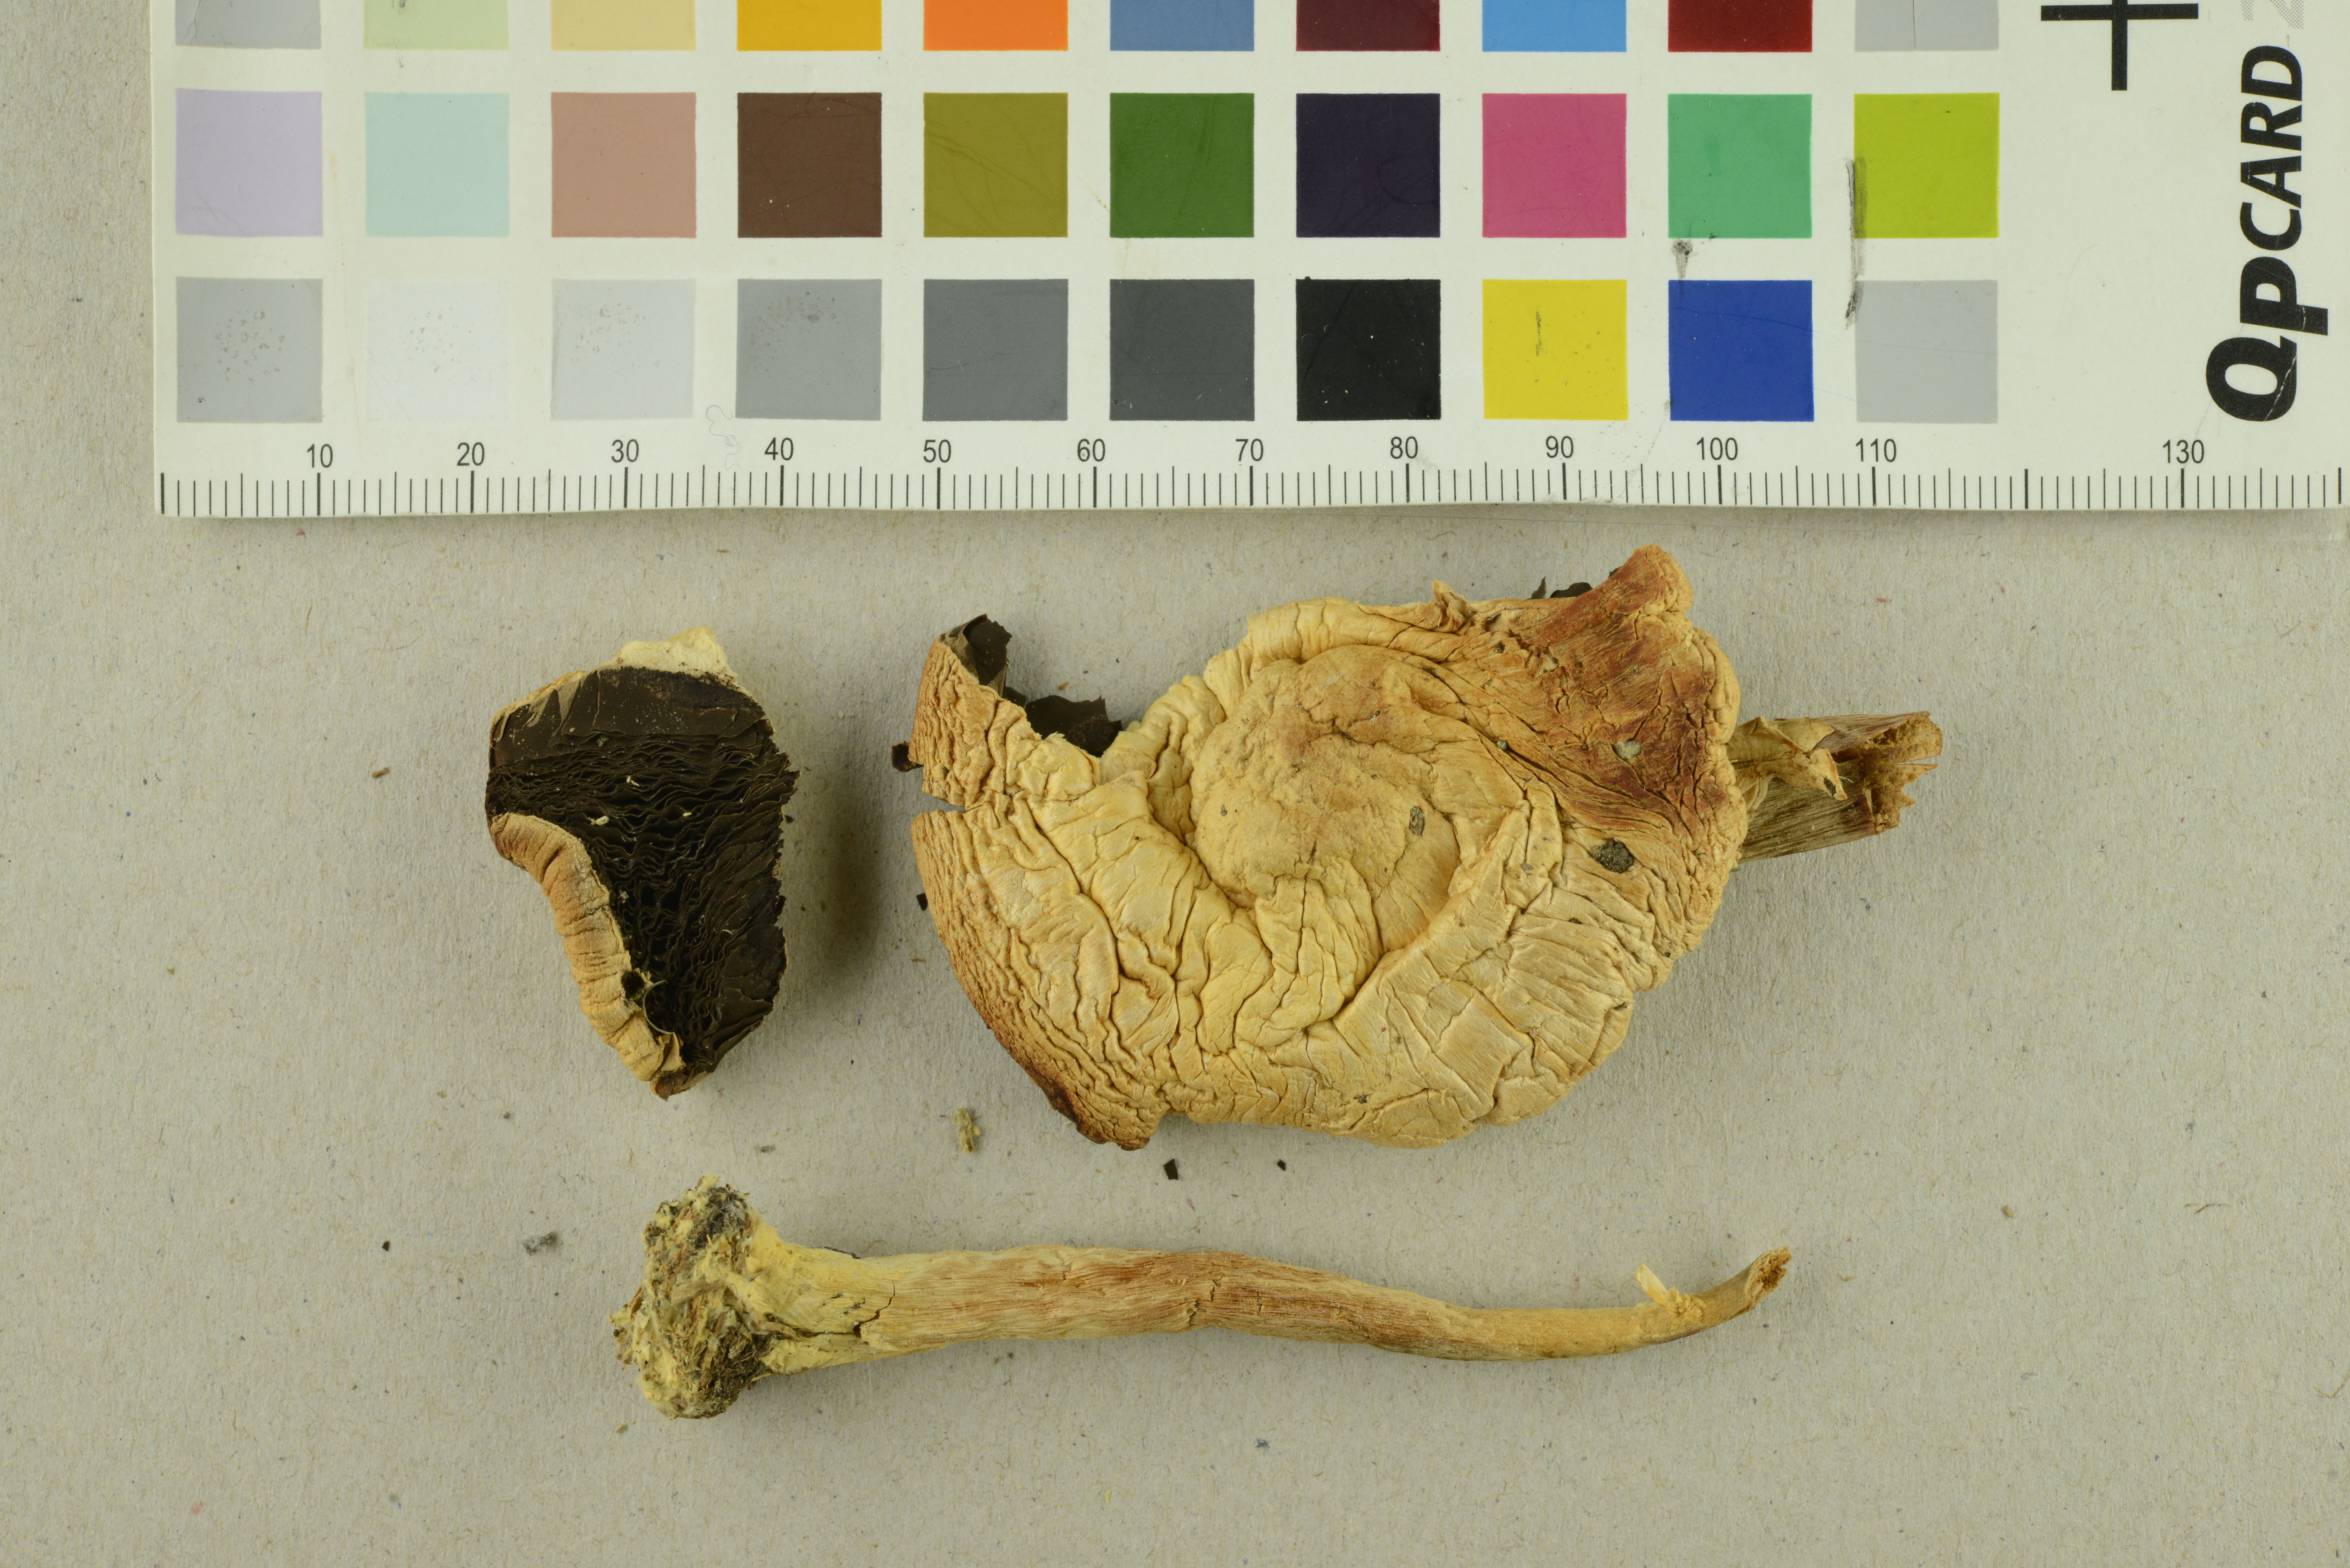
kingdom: Fungi
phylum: Basidiomycota
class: Agaricomycetes
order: Agaricales
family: Agaricaceae
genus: Agaricus
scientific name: Agaricus xanthodermus
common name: Yellow stainer
